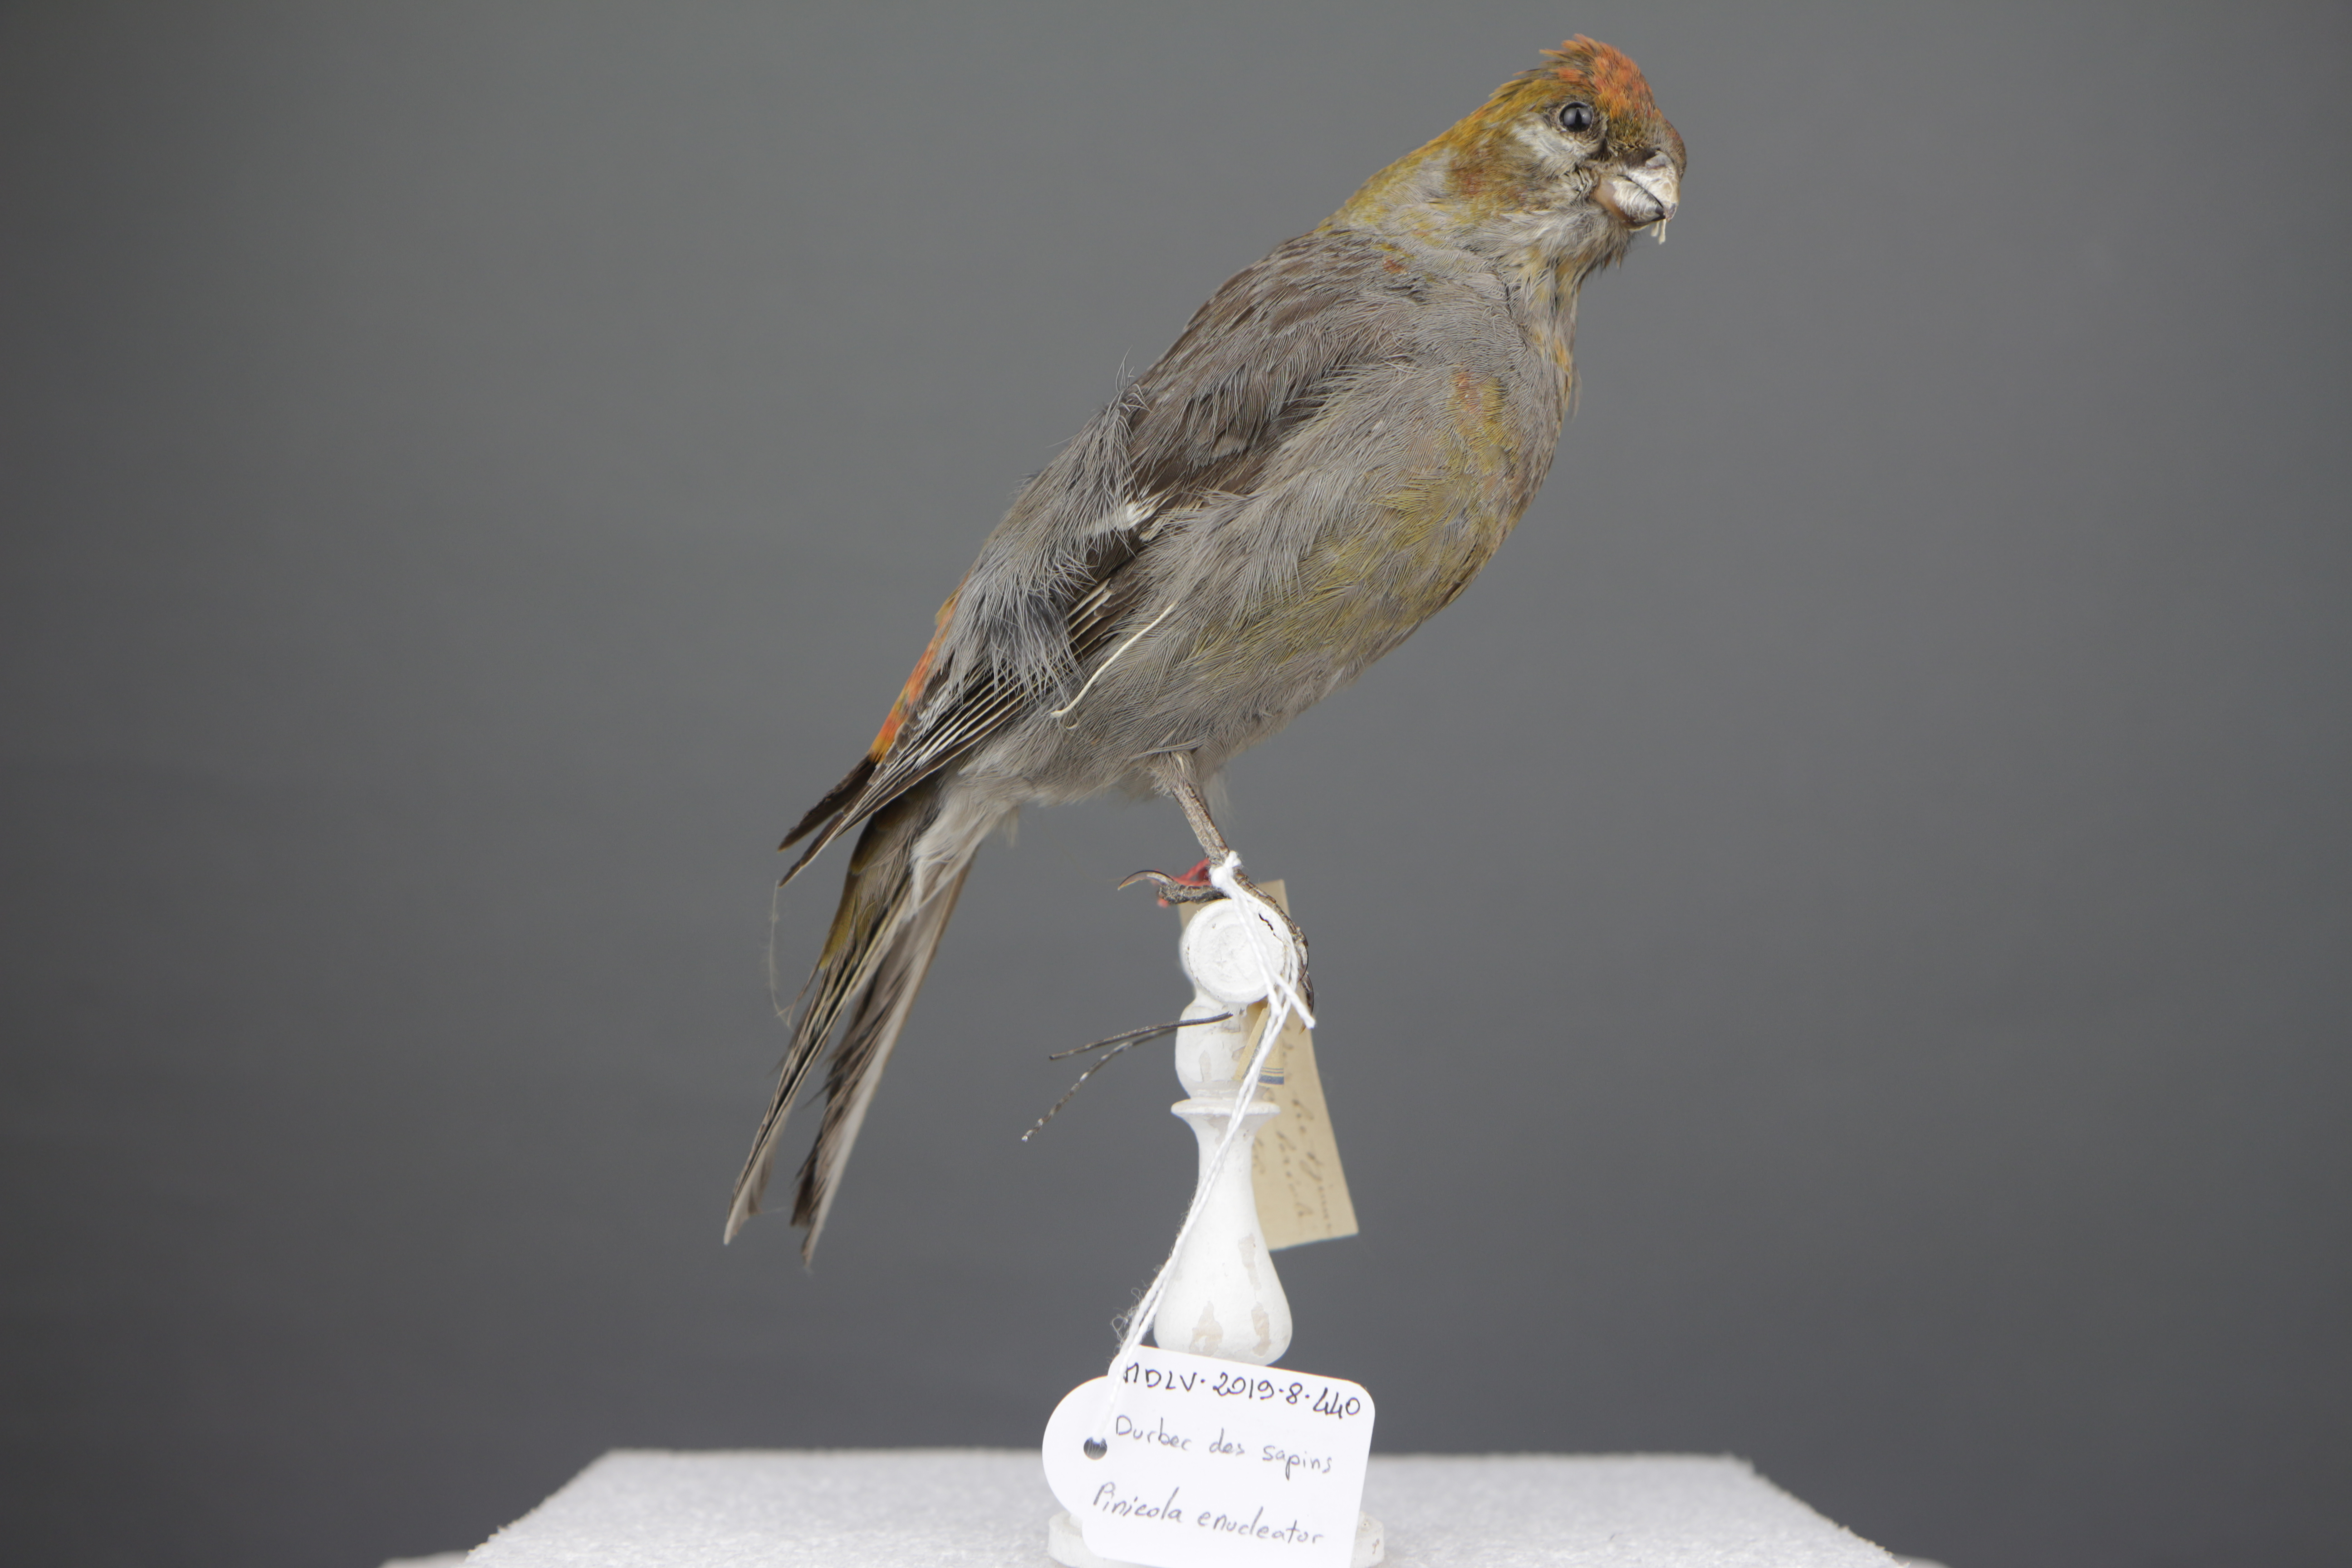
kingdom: Animalia
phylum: Chordata
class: Aves
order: Passeriformes
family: Fringillidae
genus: Pinicola
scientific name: Pinicola enucleator
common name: Pine grosbeak
